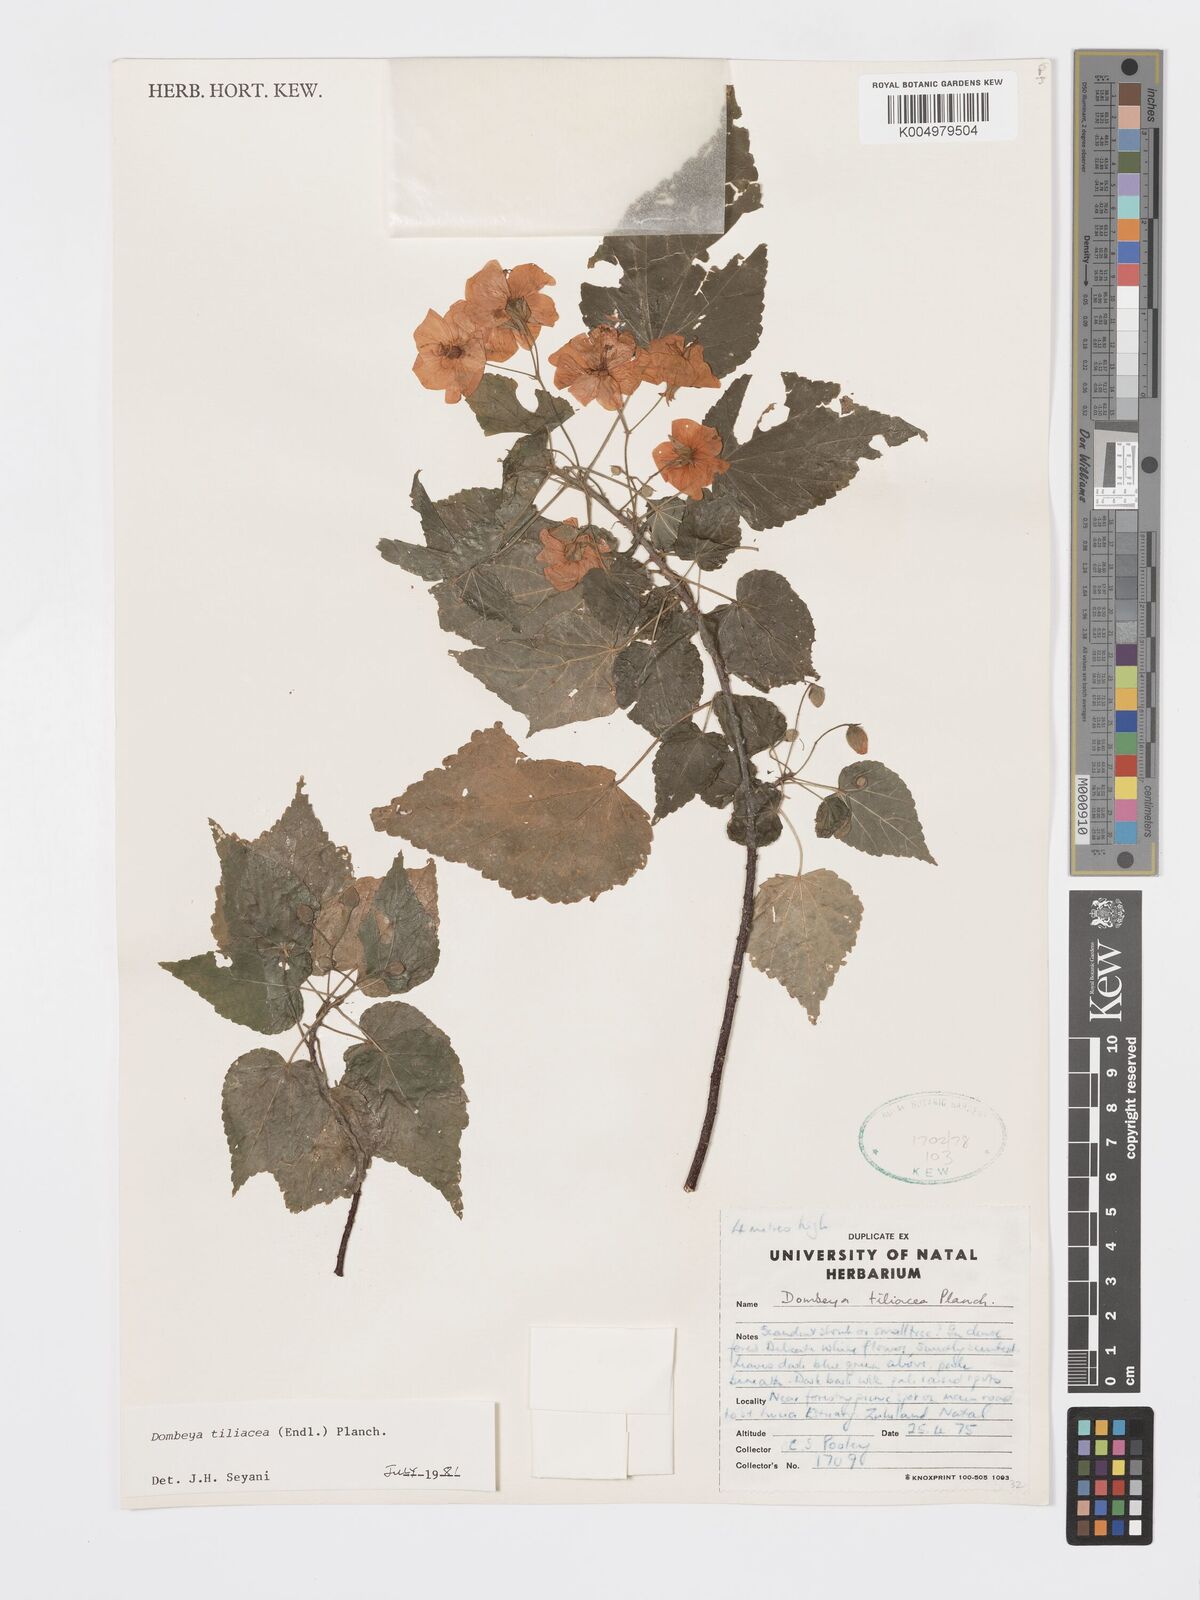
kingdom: Plantae
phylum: Tracheophyta
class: Magnoliopsida
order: Malvales
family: Malvaceae
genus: Dombeya
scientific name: Dombeya tiliacea
